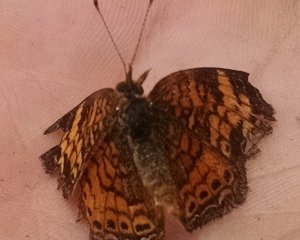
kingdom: Animalia
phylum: Arthropoda
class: Insecta
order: Lepidoptera
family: Nymphalidae
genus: Phyciodes
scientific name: Phyciodes tharos
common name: Pearl Crescent
